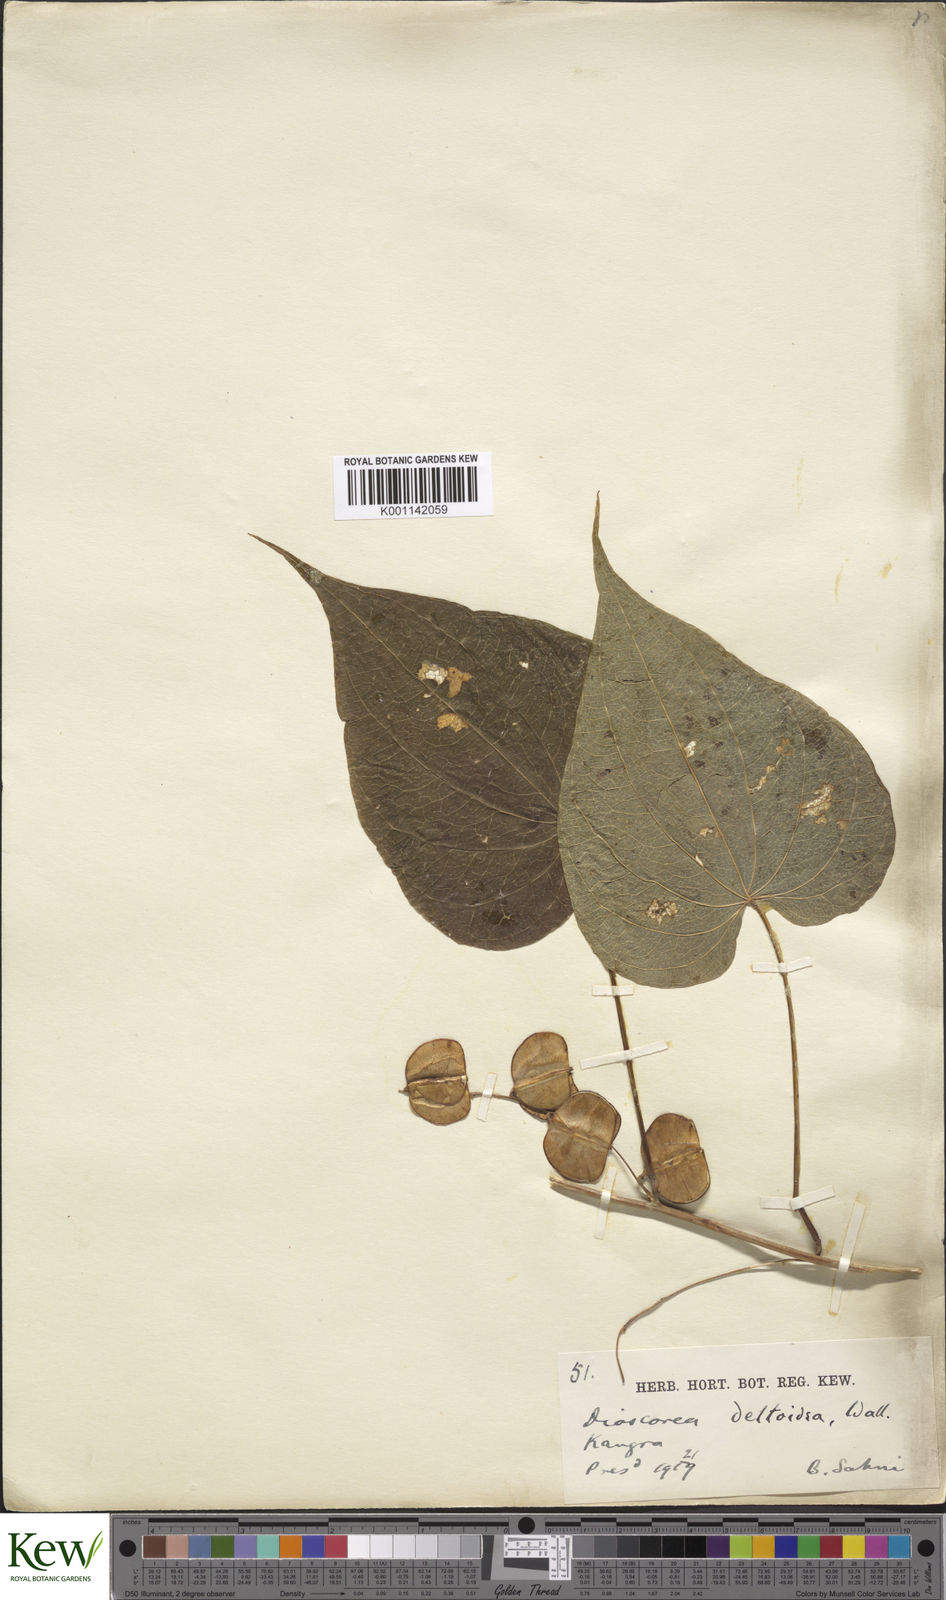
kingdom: Plantae
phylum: Tracheophyta
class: Liliopsida
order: Dioscoreales
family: Dioscoreaceae
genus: Dioscorea
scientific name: Dioscorea deltoidea
